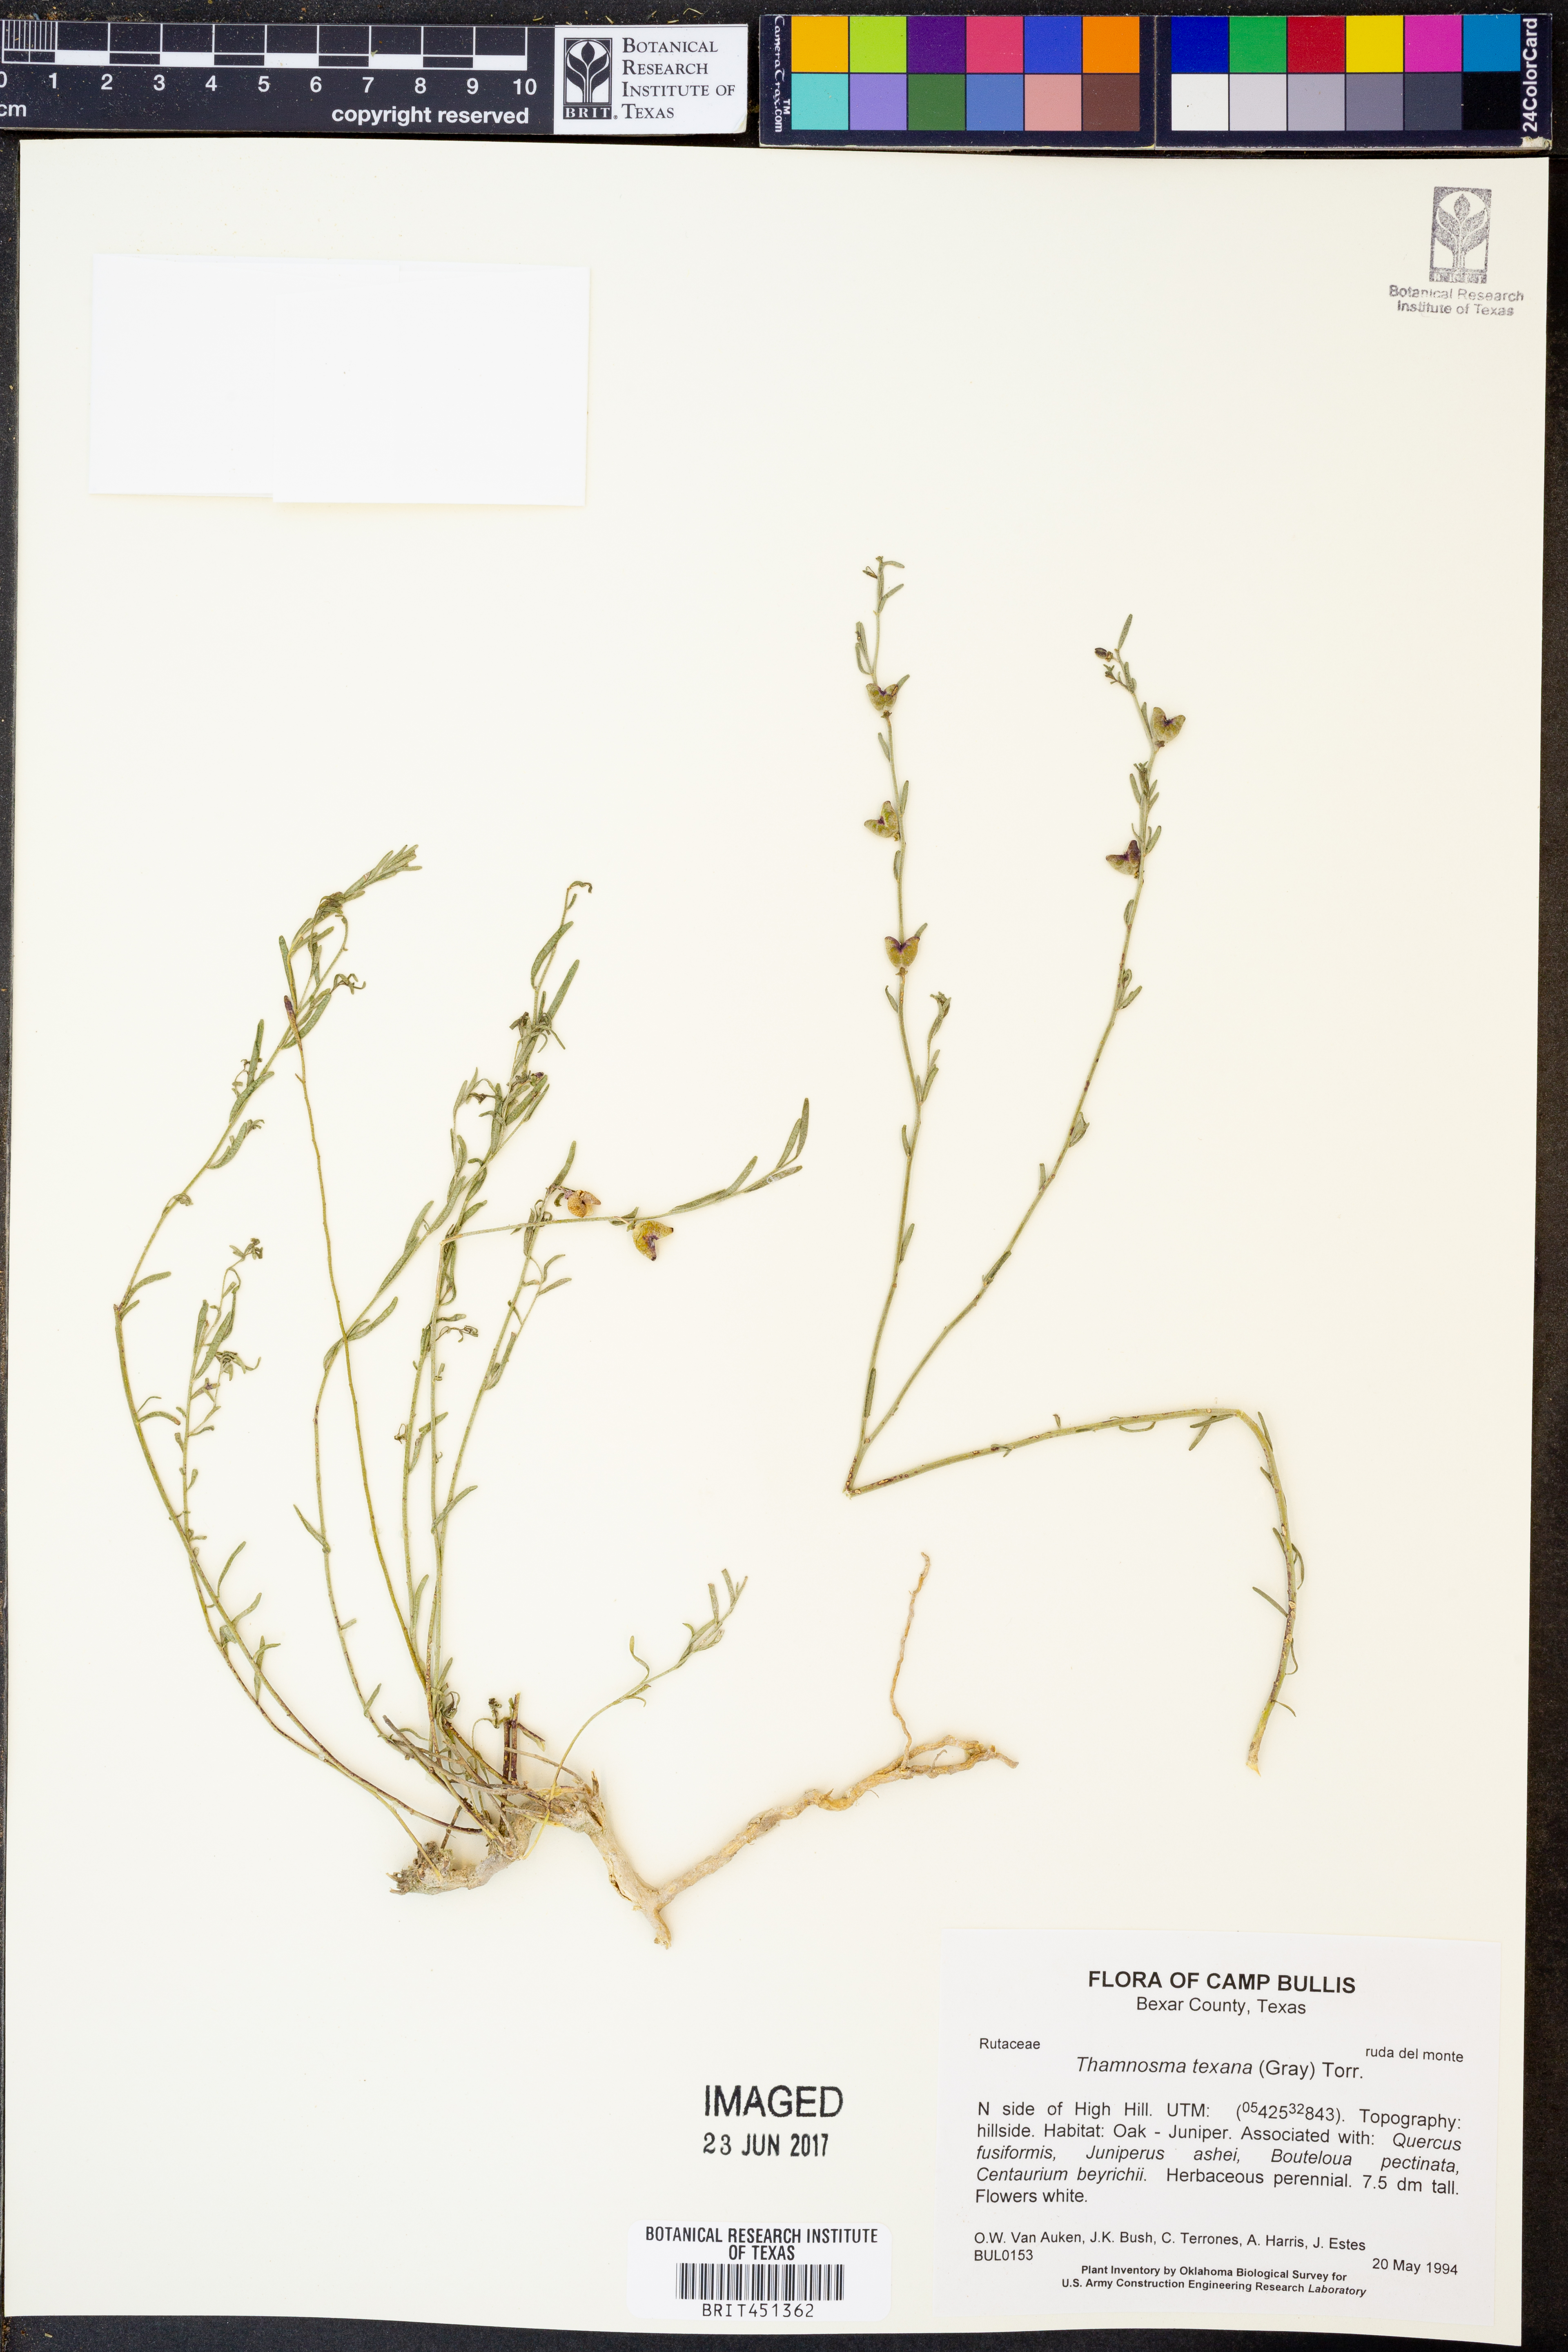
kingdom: Plantae
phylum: Tracheophyta
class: Magnoliopsida
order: Sapindales
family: Rutaceae
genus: Thamnosma
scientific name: Thamnosma texana
